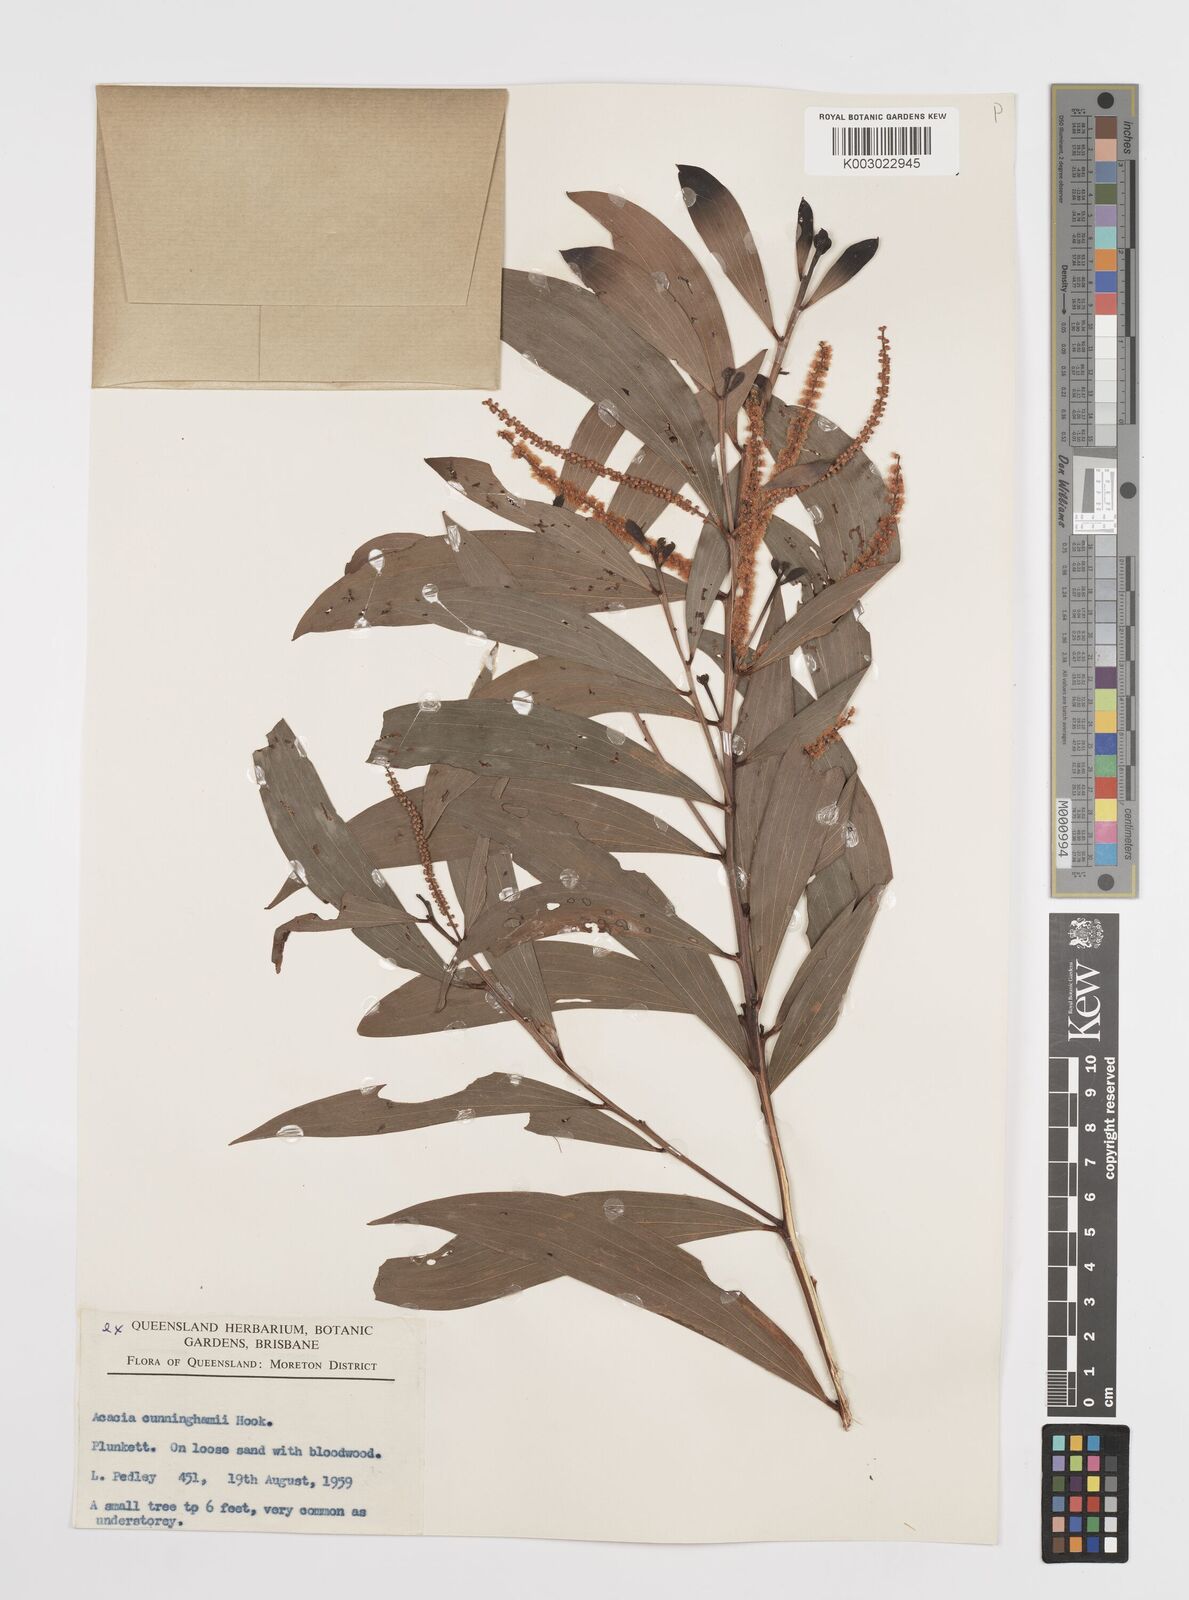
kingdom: Plantae
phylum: Tracheophyta
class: Magnoliopsida
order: Fabales
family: Fabaceae
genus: Acacia
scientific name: Acacia longispicata
